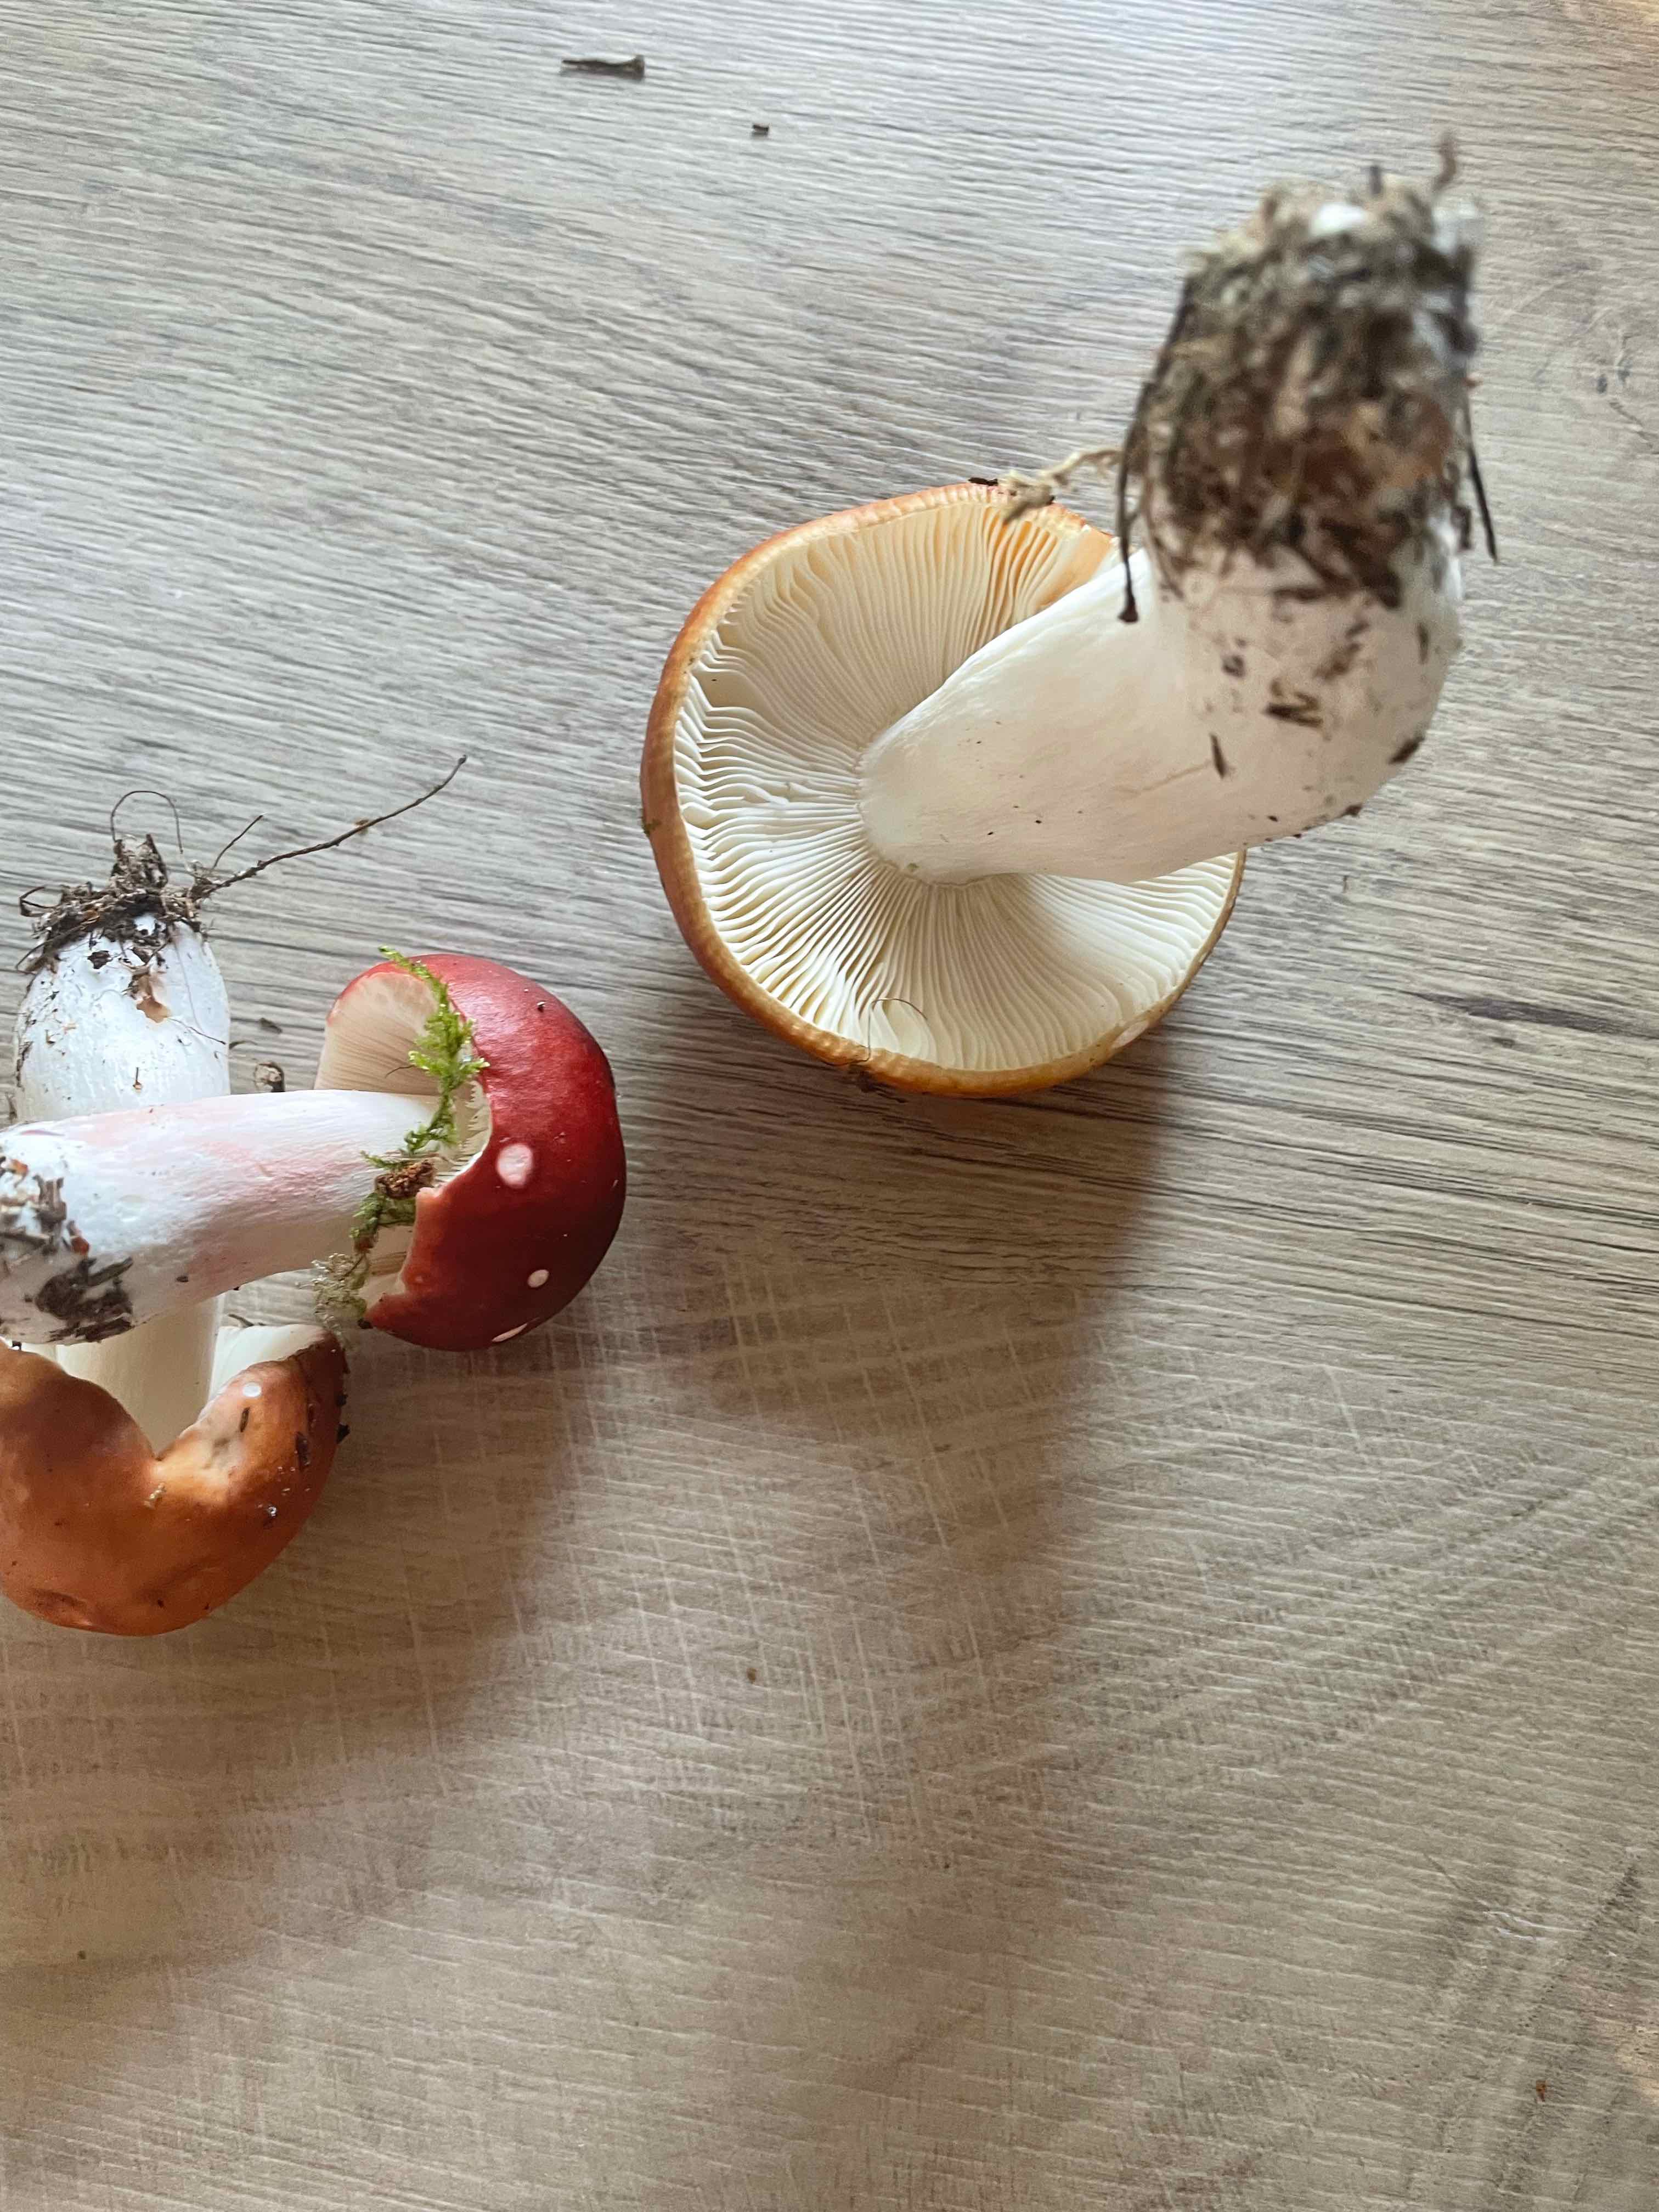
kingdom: Fungi
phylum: Basidiomycota
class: Agaricomycetes
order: Russulales
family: Russulaceae
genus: Russula
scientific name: Russula paludosa
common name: prægtig skørhat
